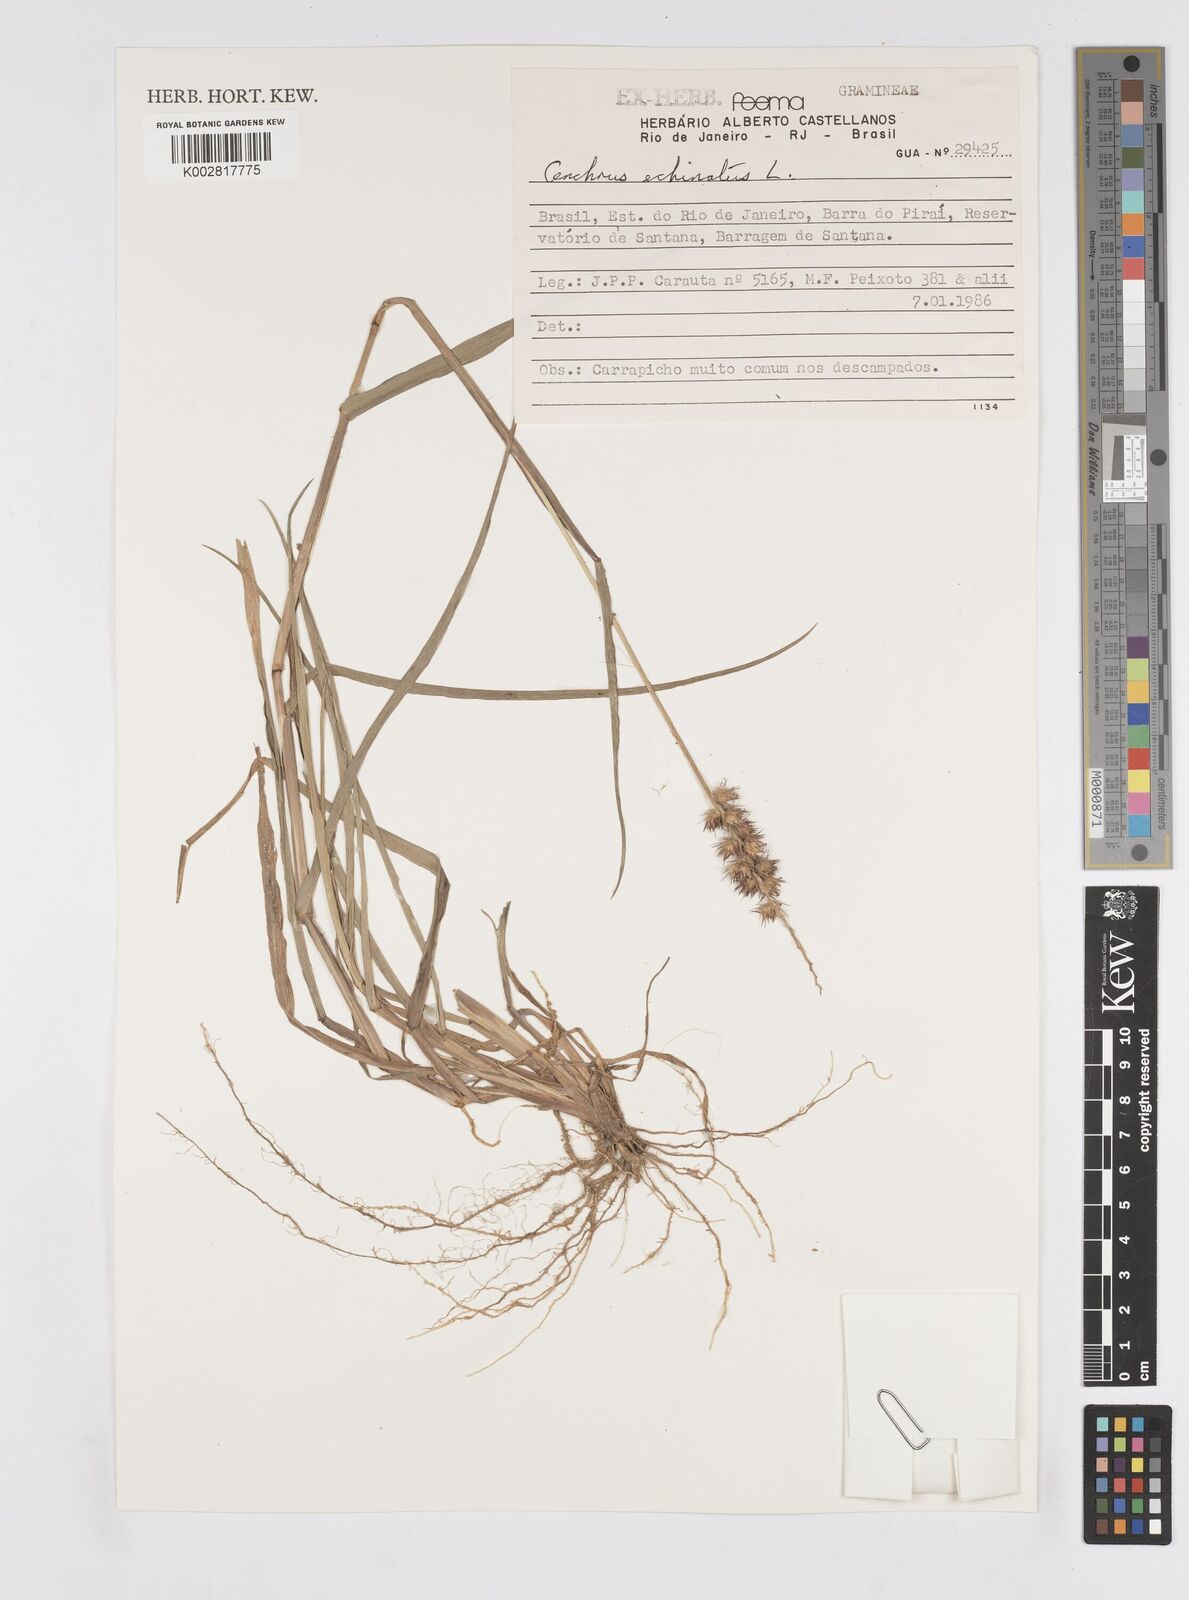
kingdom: Plantae
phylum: Tracheophyta
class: Liliopsida
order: Poales
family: Poaceae
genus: Cenchrus
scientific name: Cenchrus
